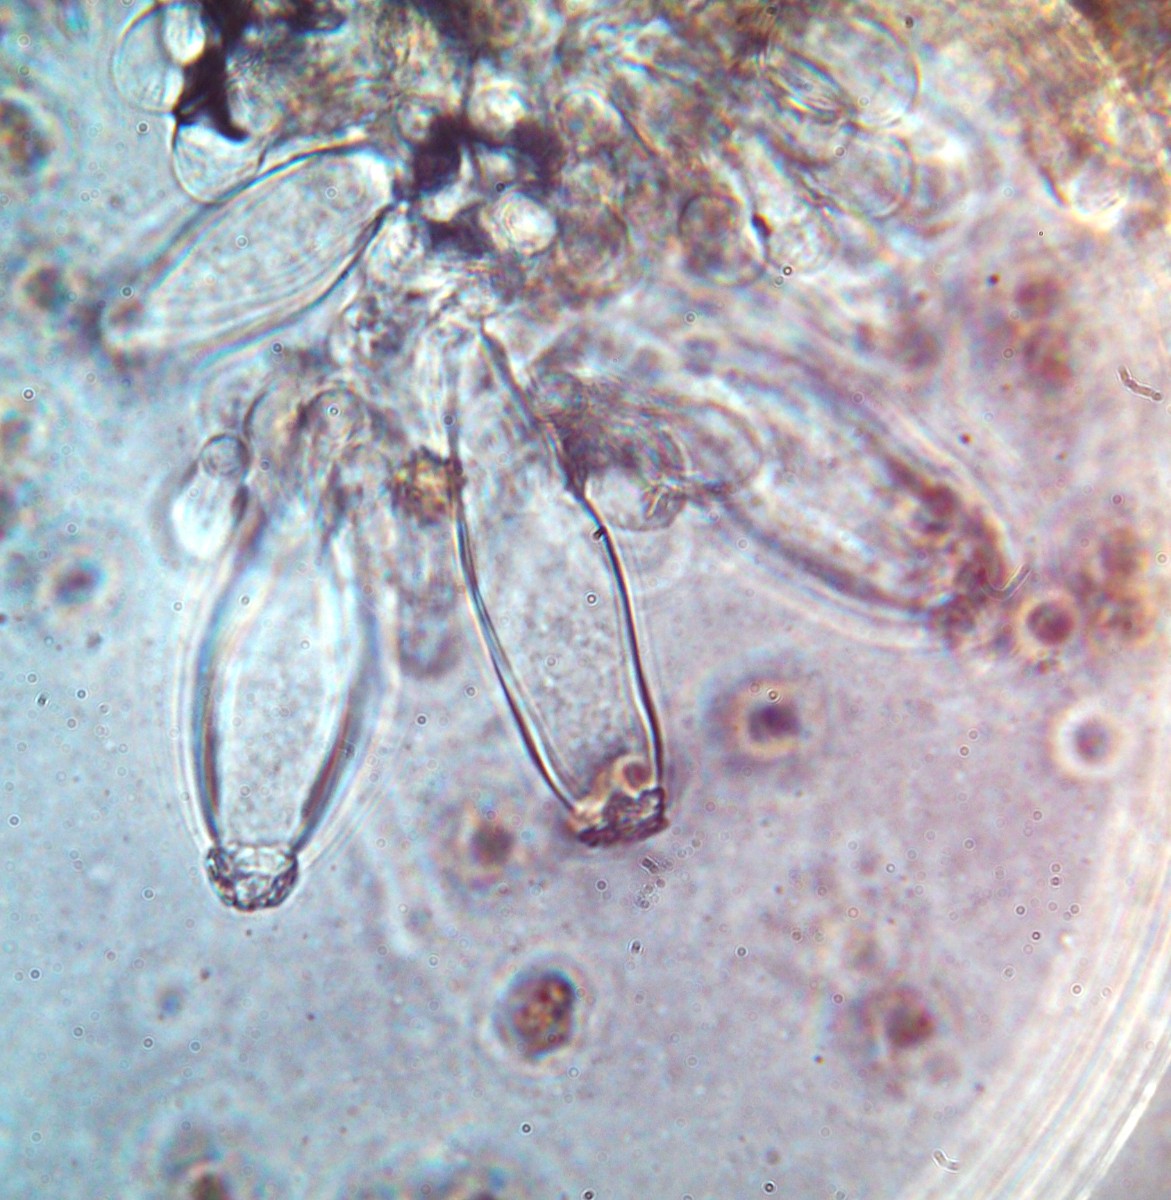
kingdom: Fungi
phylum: Basidiomycota
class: Agaricomycetes
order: Agaricales
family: Inocybaceae
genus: Inocybe
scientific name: Inocybe napipes
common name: roeknoldet trævlhat
